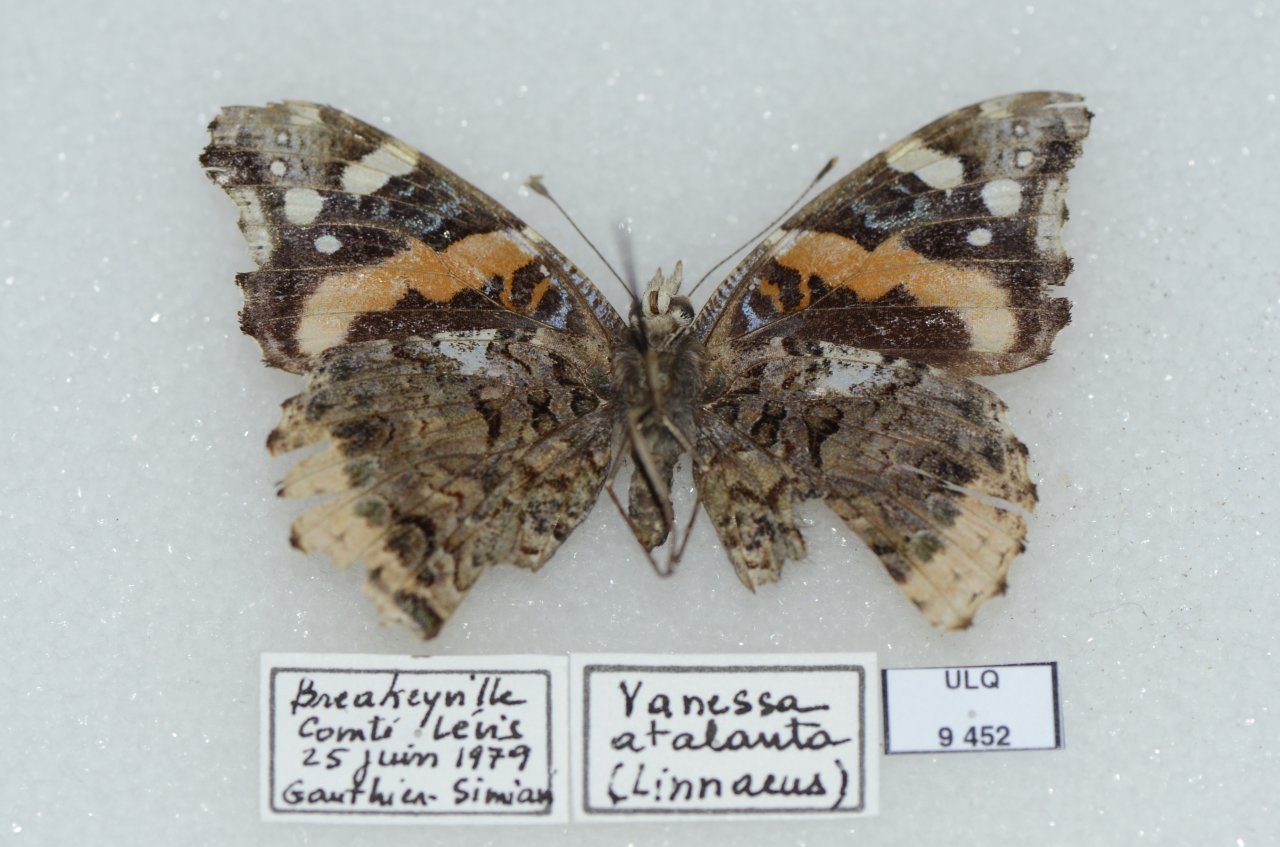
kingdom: Animalia
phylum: Arthropoda
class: Insecta
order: Lepidoptera
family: Nymphalidae
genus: Vanessa
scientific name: Vanessa atalanta
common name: Red Admiral
